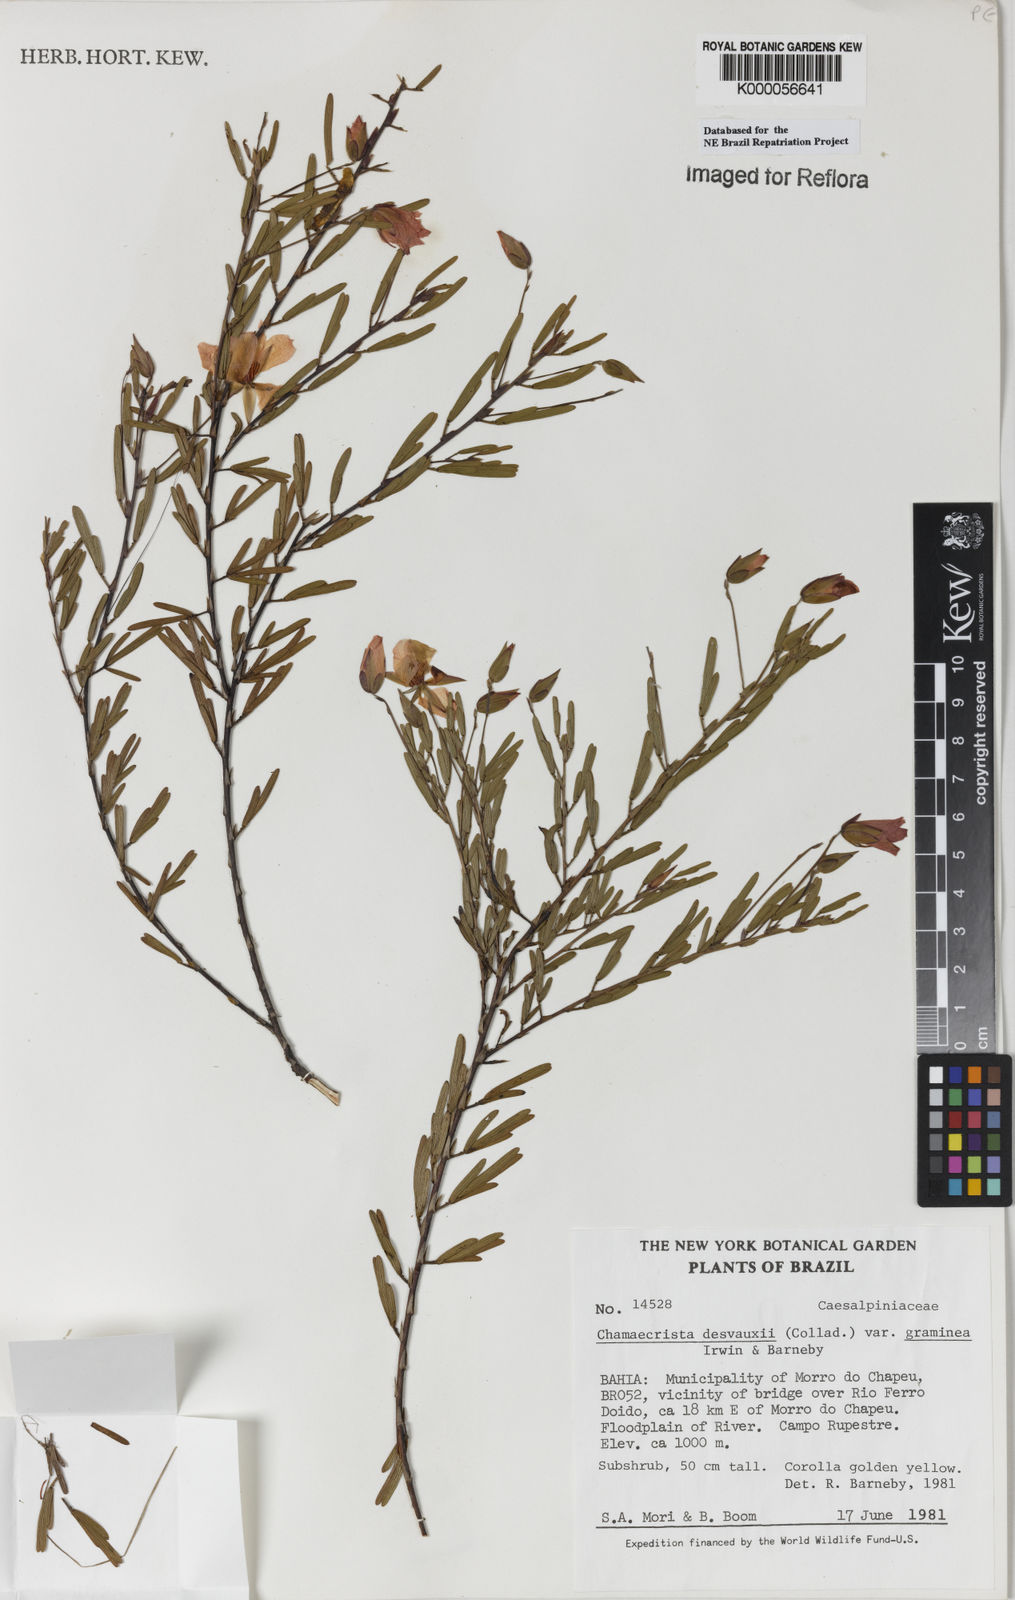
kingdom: Plantae
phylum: Tracheophyta
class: Magnoliopsida
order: Fabales
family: Fabaceae
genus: Chamaecrista
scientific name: Chamaecrista desvauxii
